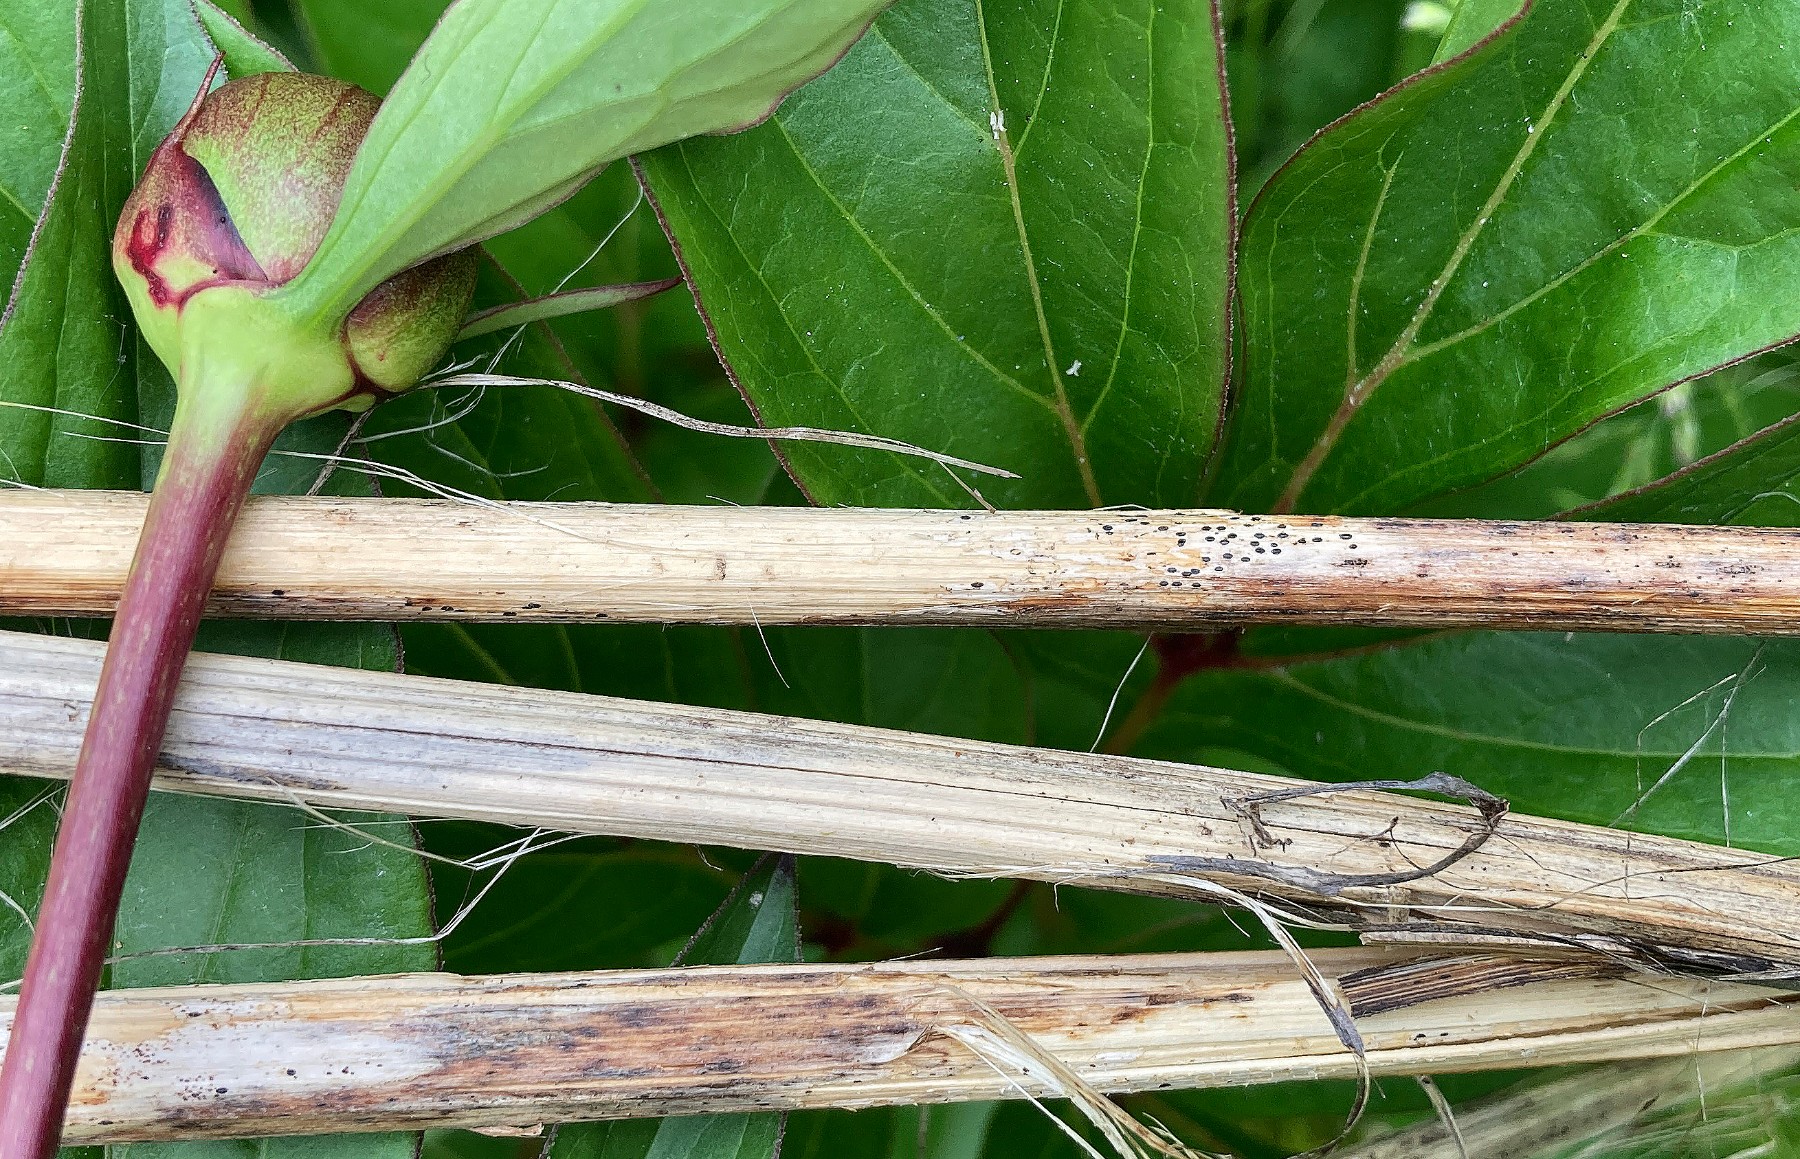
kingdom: Fungi
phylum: Ascomycota
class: Leotiomycetes
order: Rhytismatales
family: Rhytismataceae
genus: Lophodermium
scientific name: Lophodermium paeoniae
